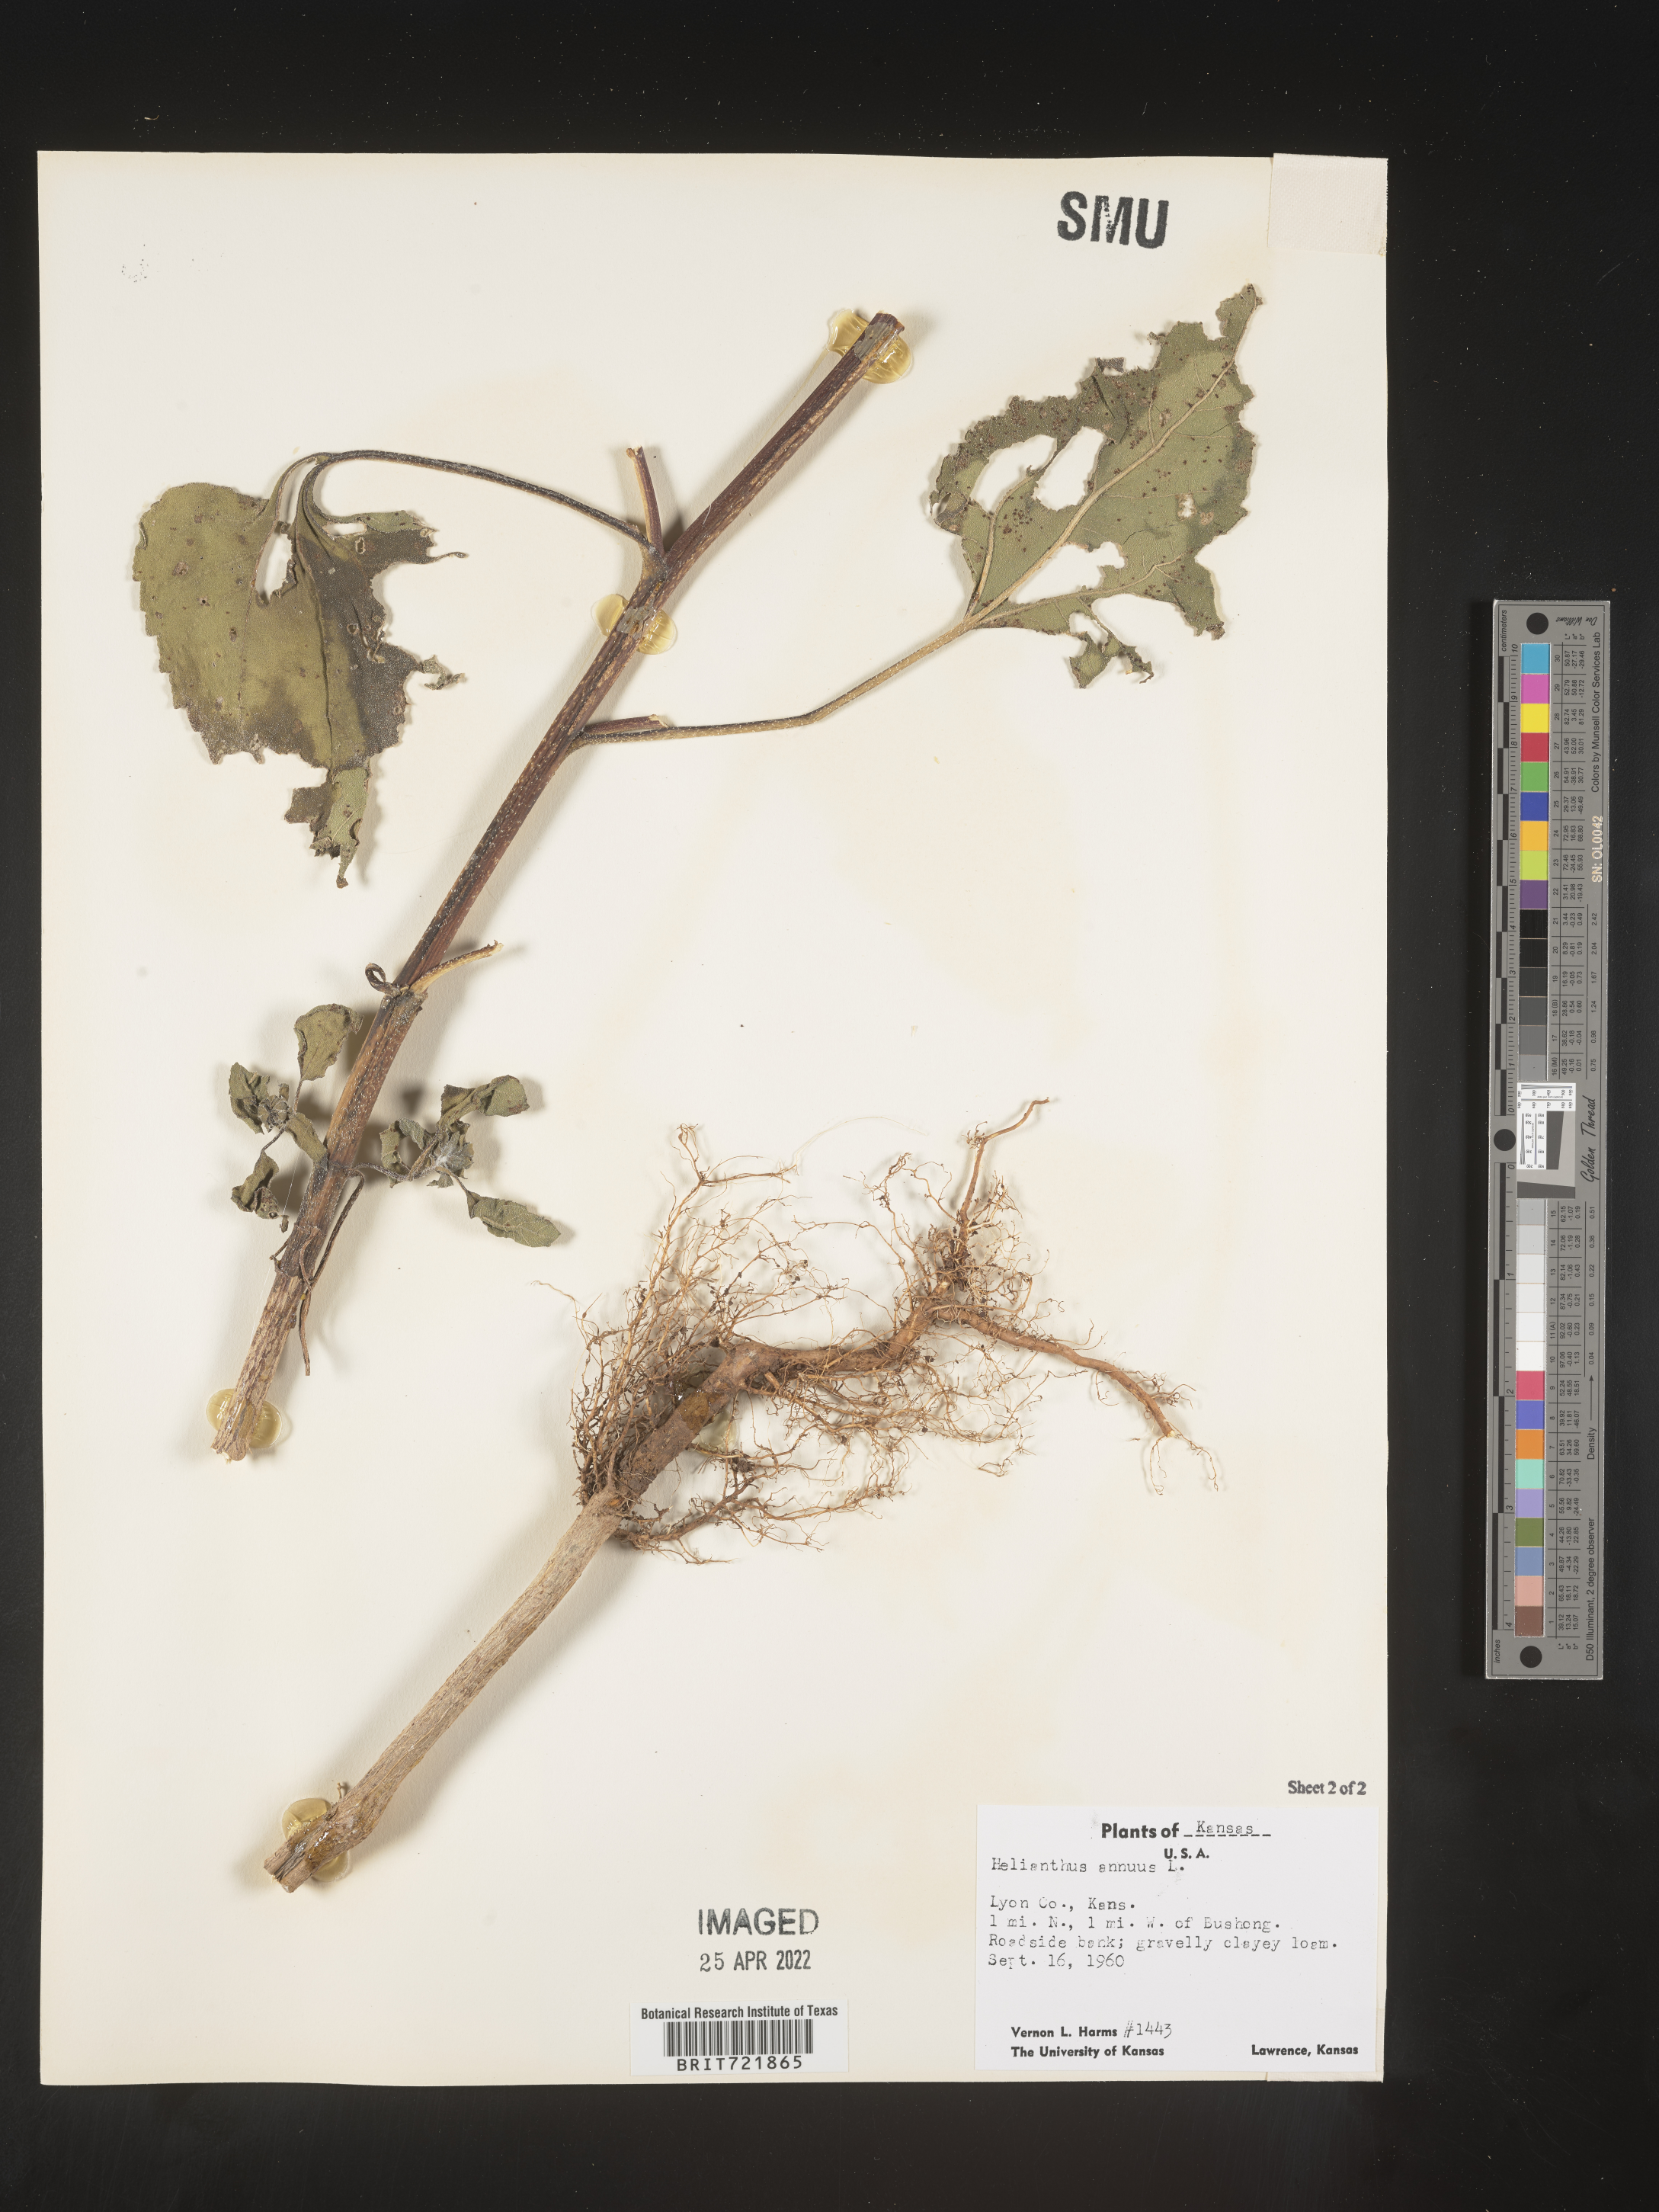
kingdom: Plantae
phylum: Tracheophyta
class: Magnoliopsida
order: Asterales
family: Asteraceae
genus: Helianthus
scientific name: Helianthus annuus
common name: Sunflower
